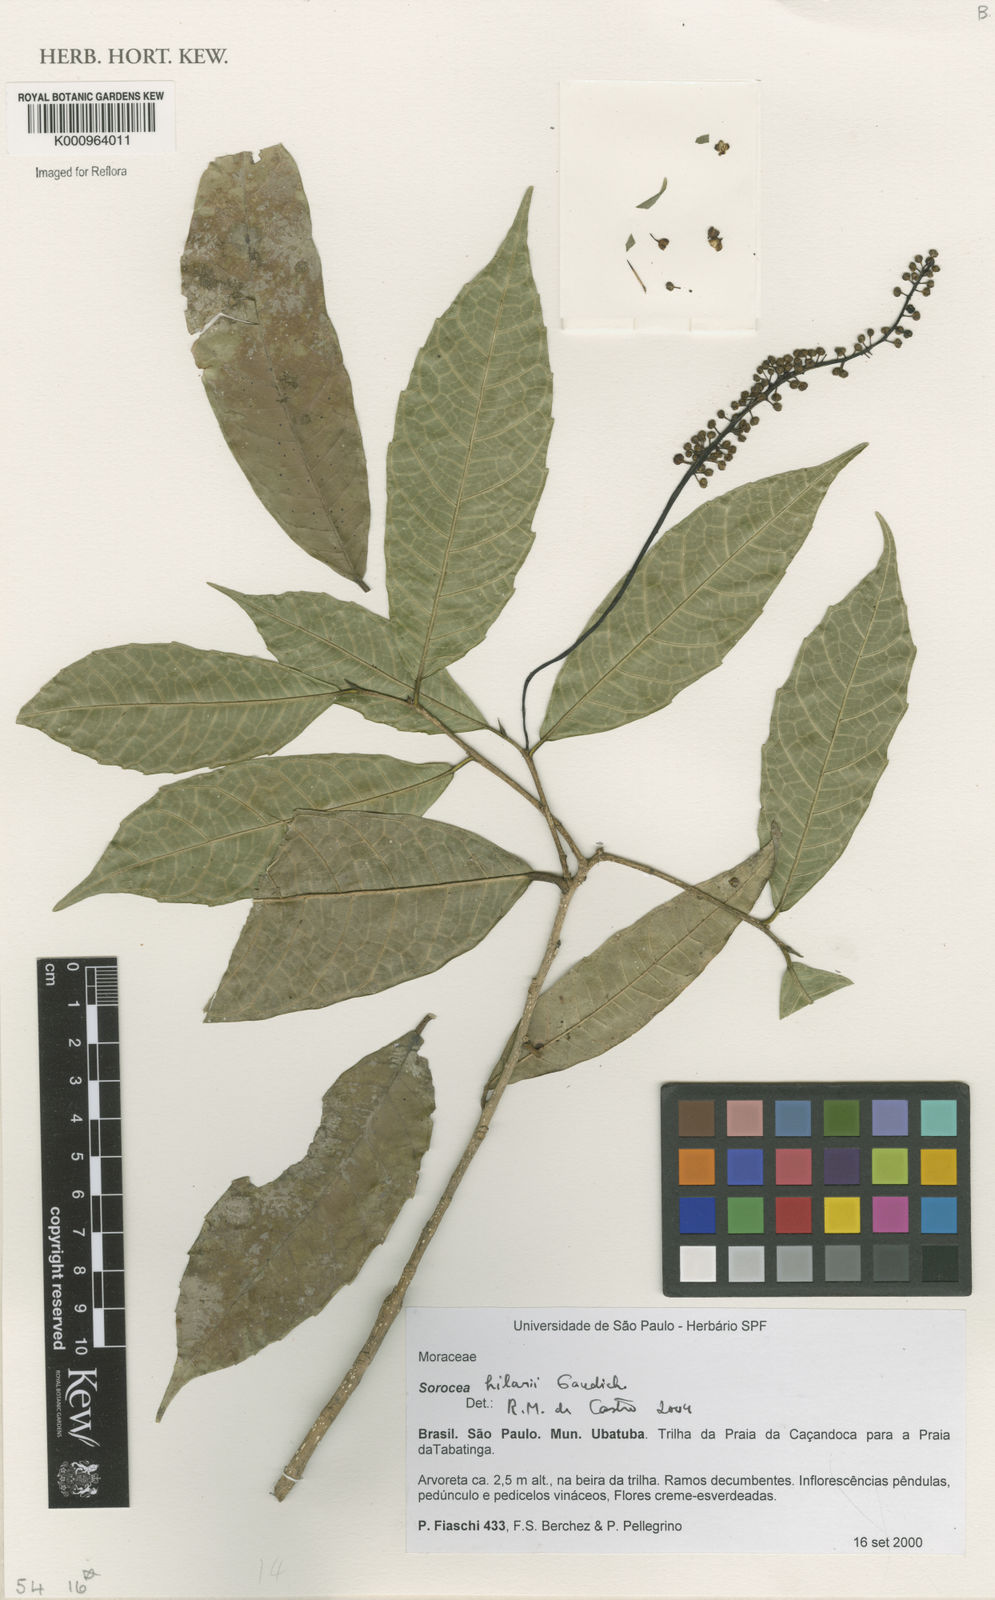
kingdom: Plantae
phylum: Tracheophyta
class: Magnoliopsida
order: Rosales
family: Moraceae
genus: Sorocea
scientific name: Sorocea hilarii
